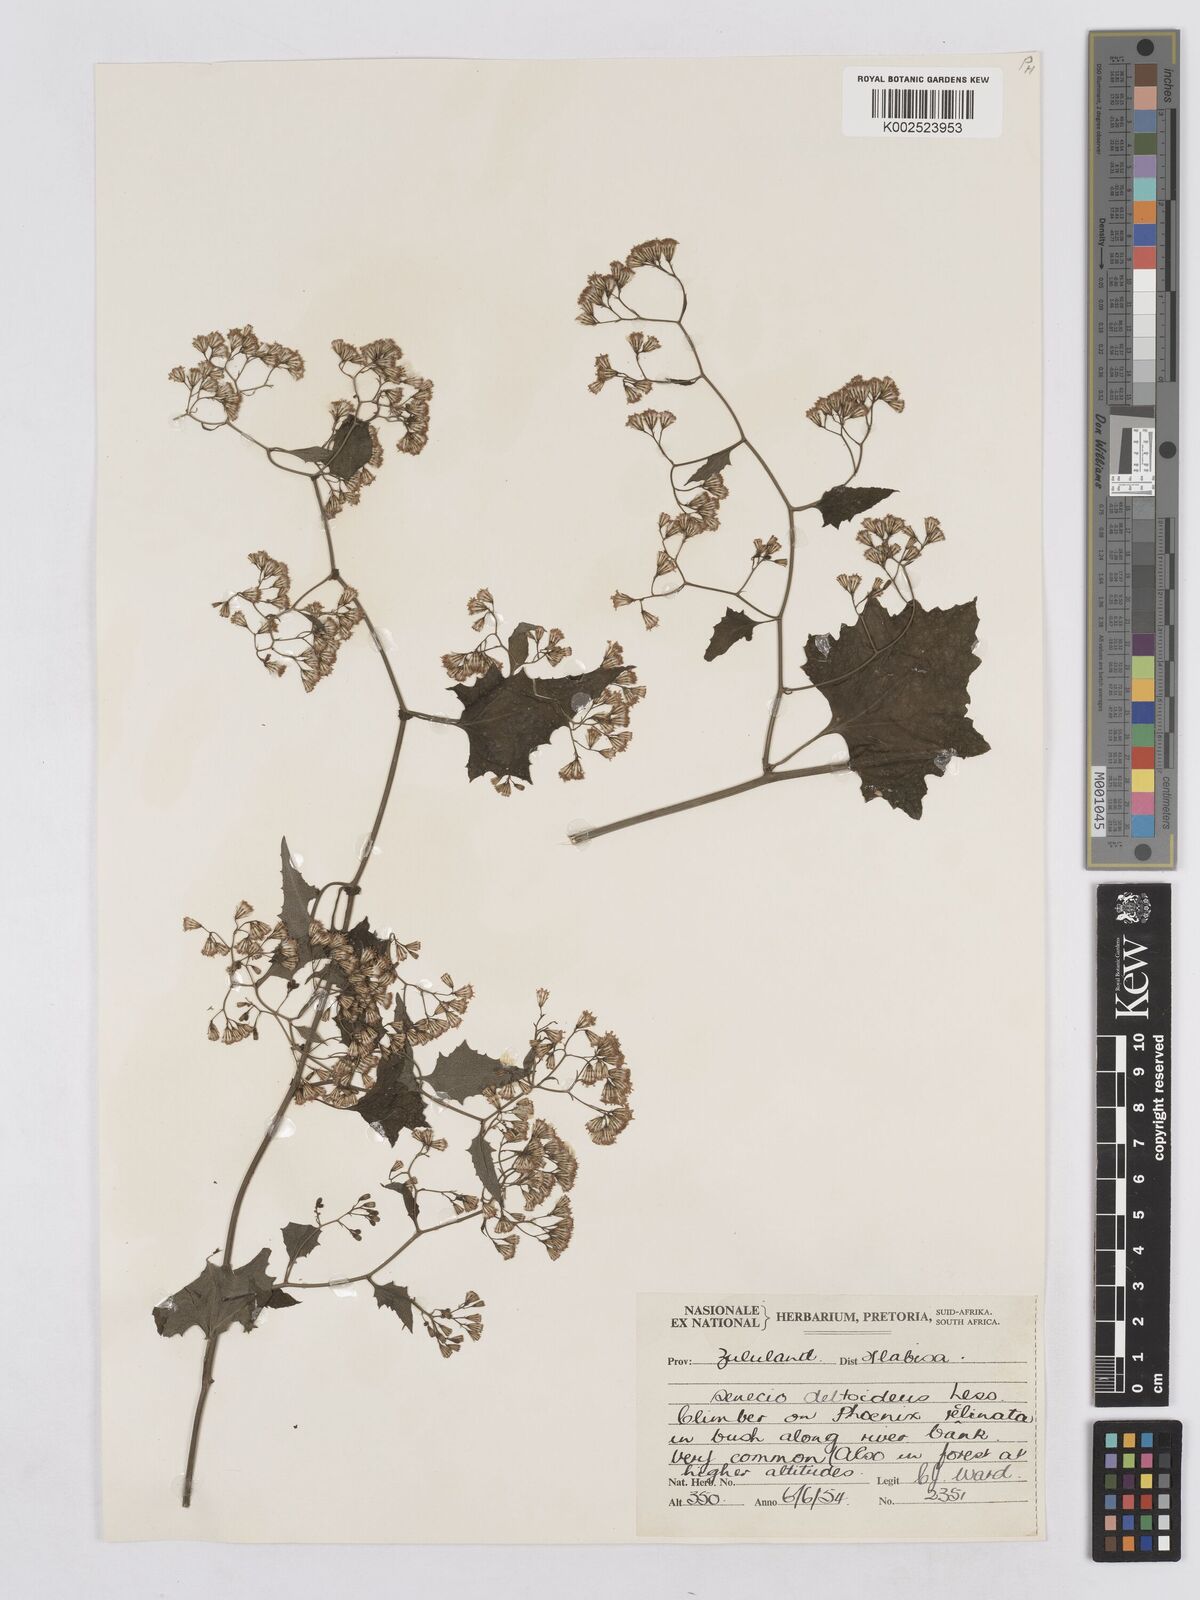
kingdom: Plantae
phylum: Tracheophyta
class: Magnoliopsida
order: Asterales
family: Asteraceae
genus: Senecio
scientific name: Senecio deltoideus
